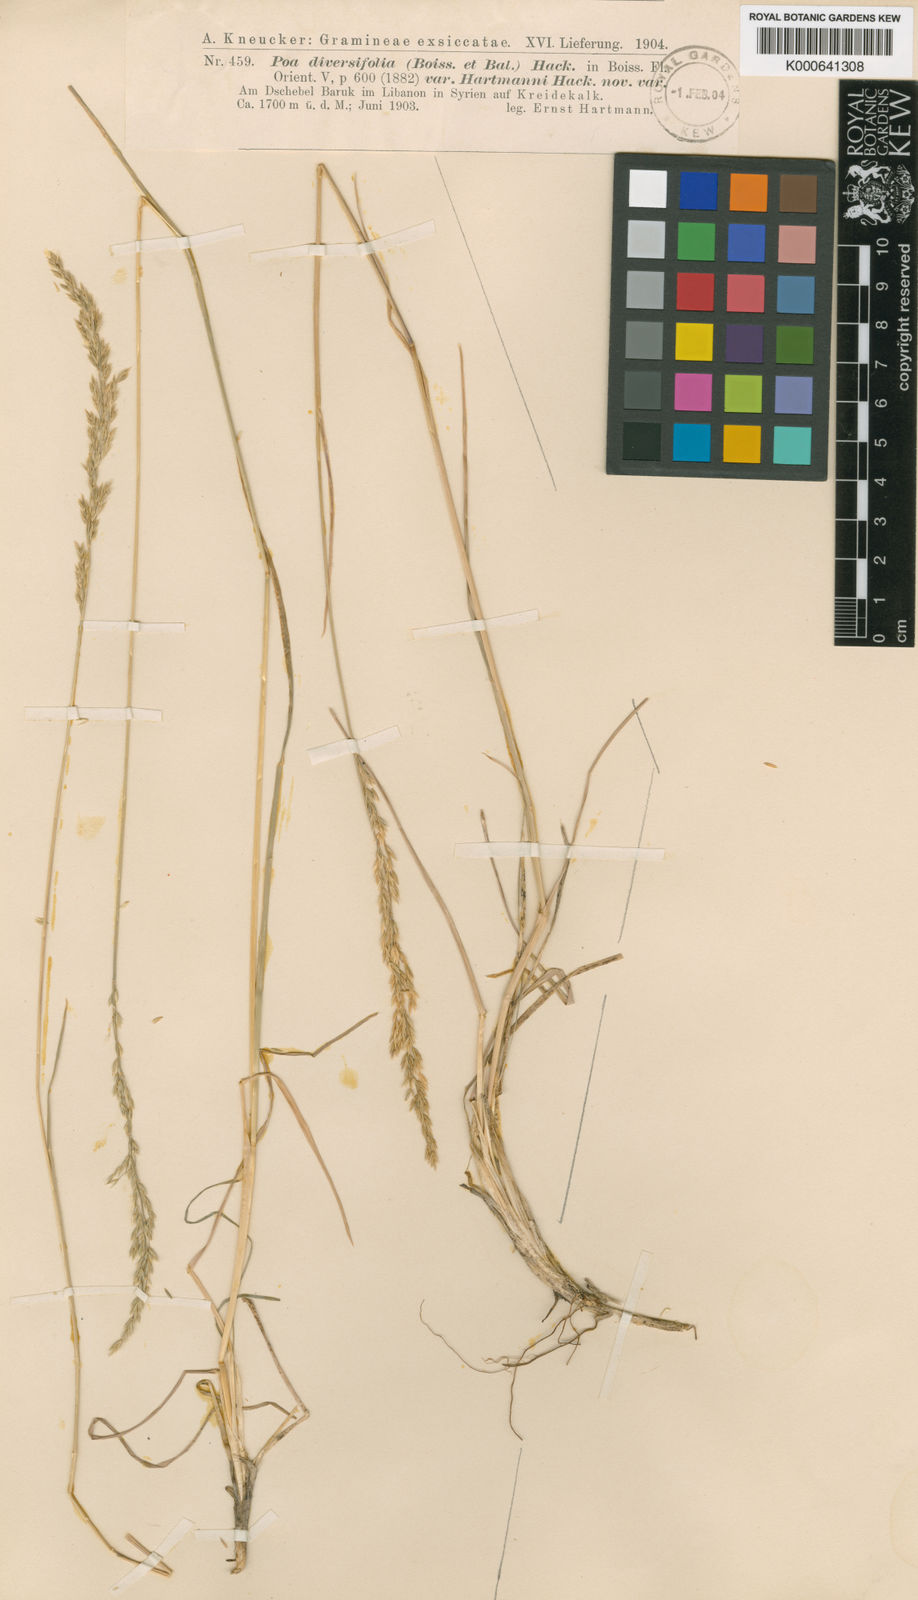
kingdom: Plantae
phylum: Tracheophyta
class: Liliopsida
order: Poales
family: Poaceae
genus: Poa
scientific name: Poa diversifolia
